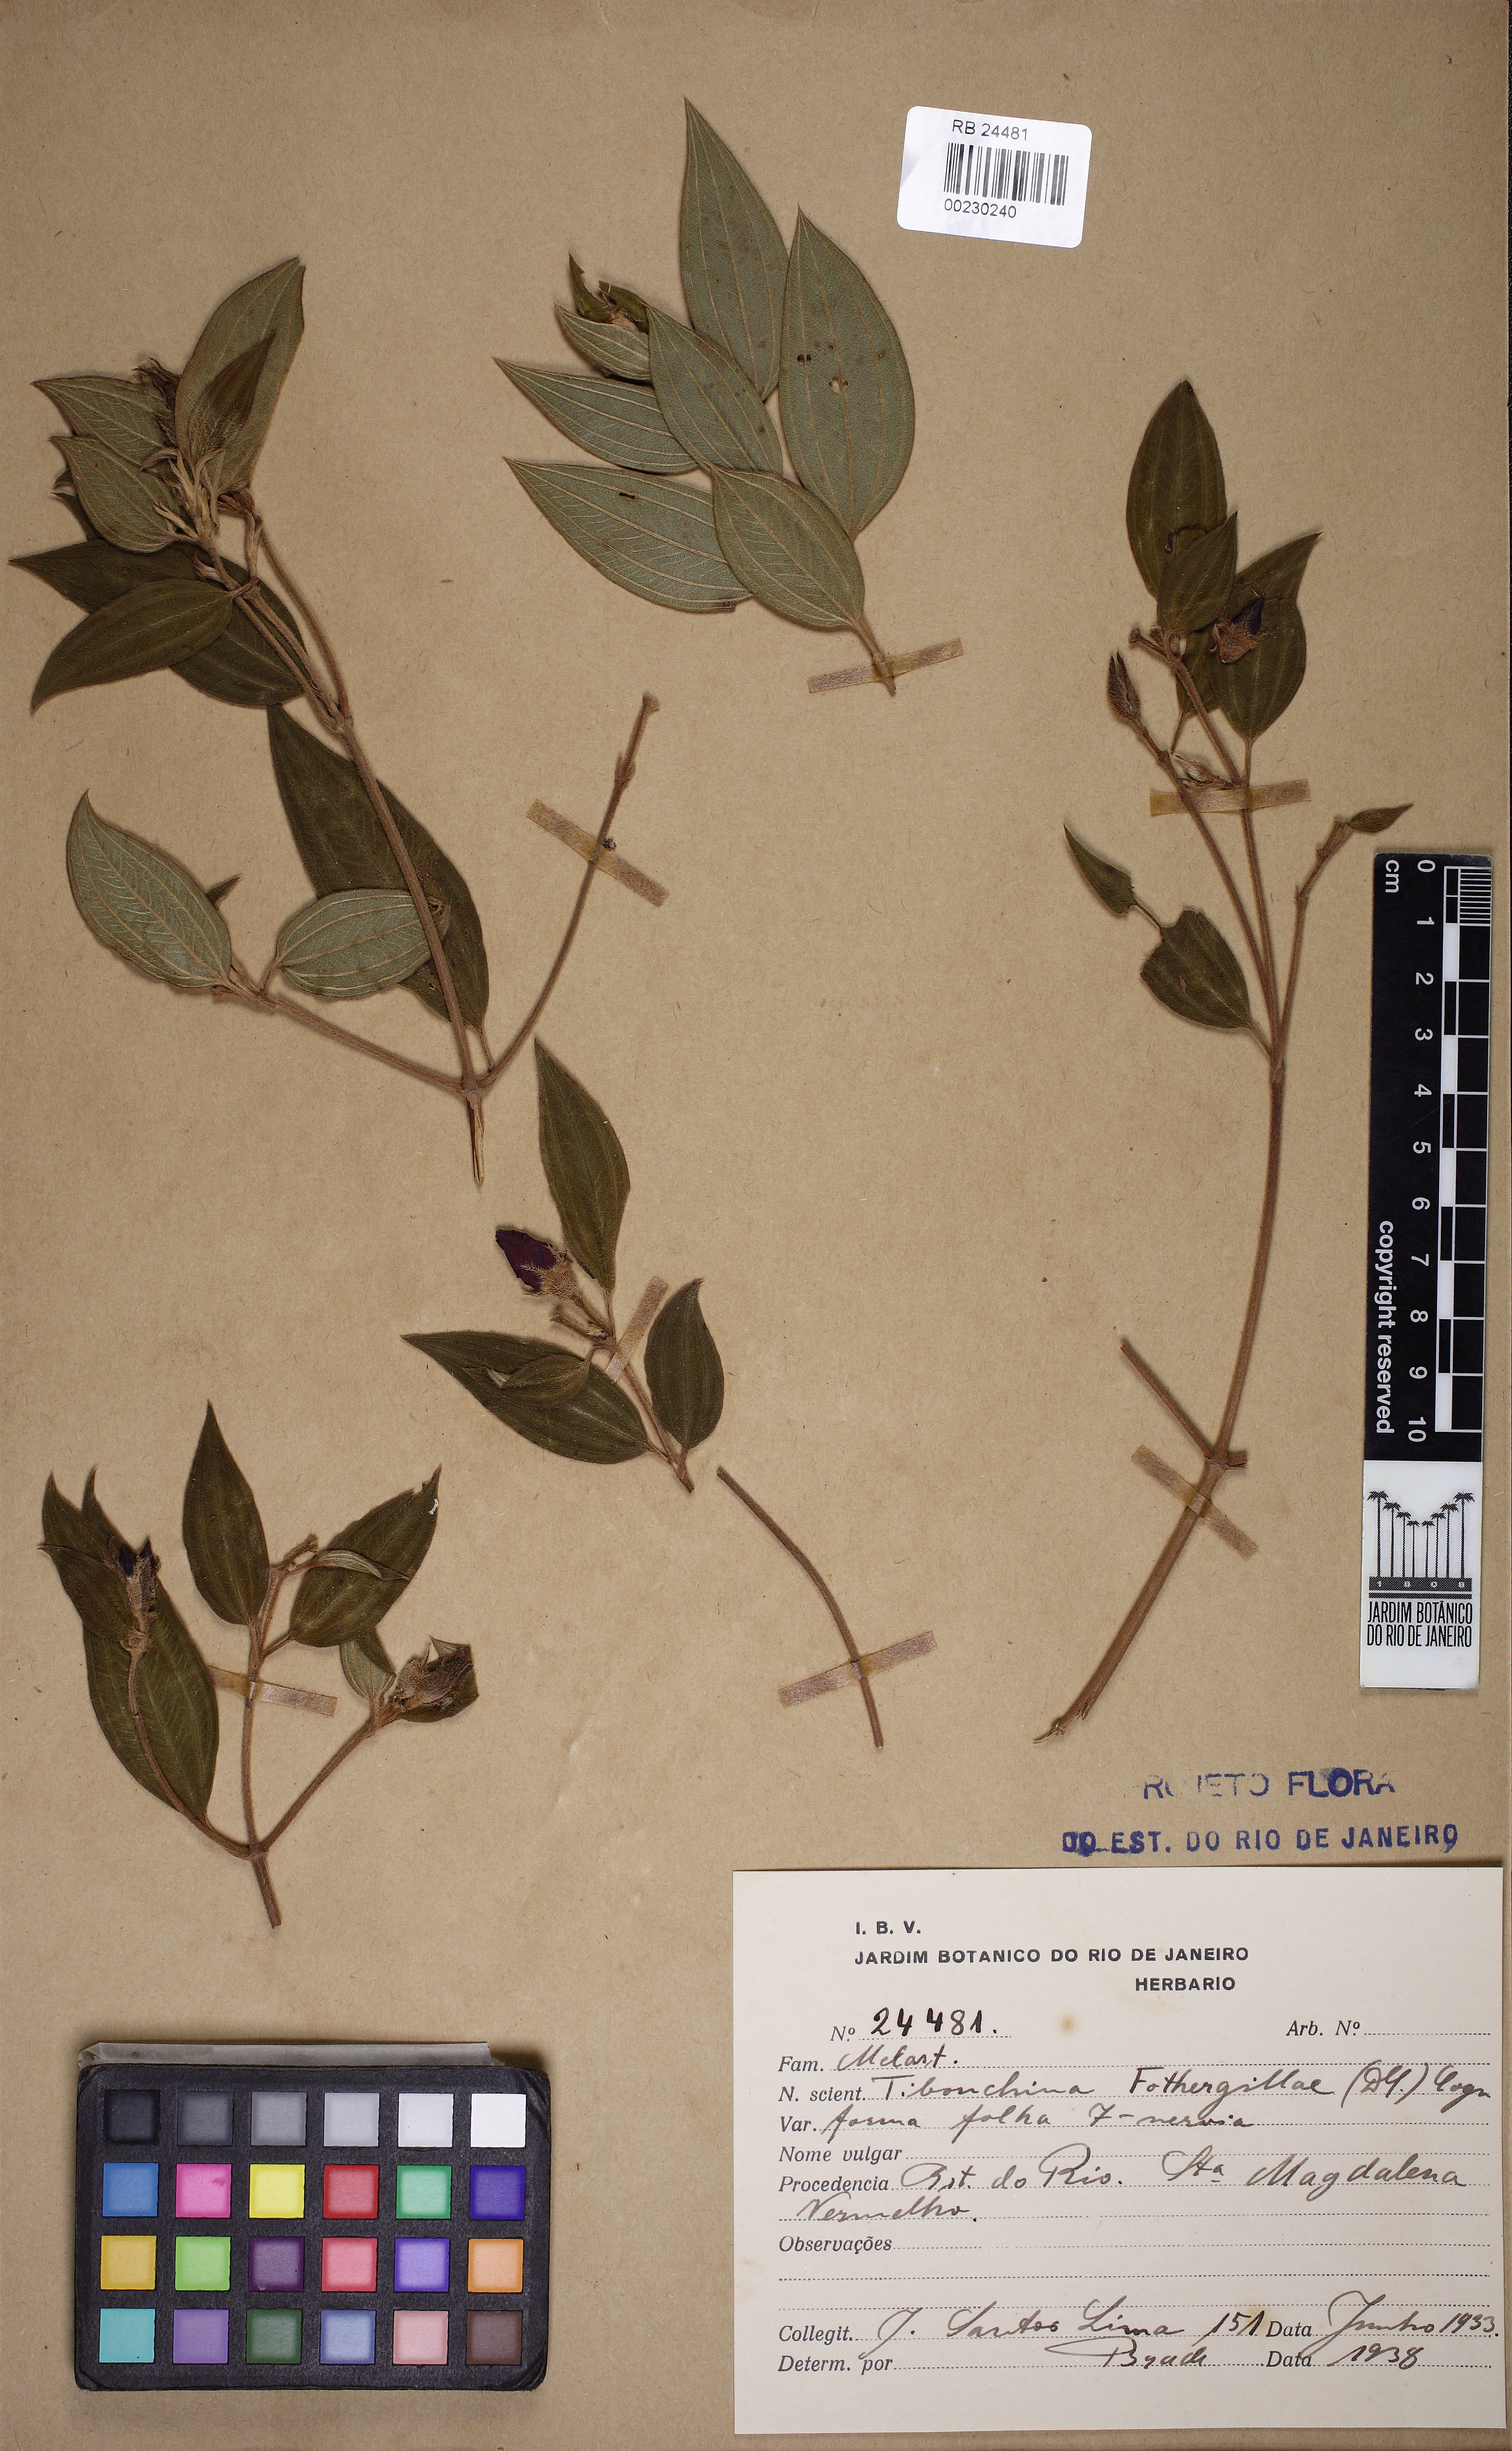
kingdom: Plantae
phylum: Tracheophyta
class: Magnoliopsida
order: Myrtales
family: Melastomataceae
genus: Pleroma
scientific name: Pleroma fothergillae
